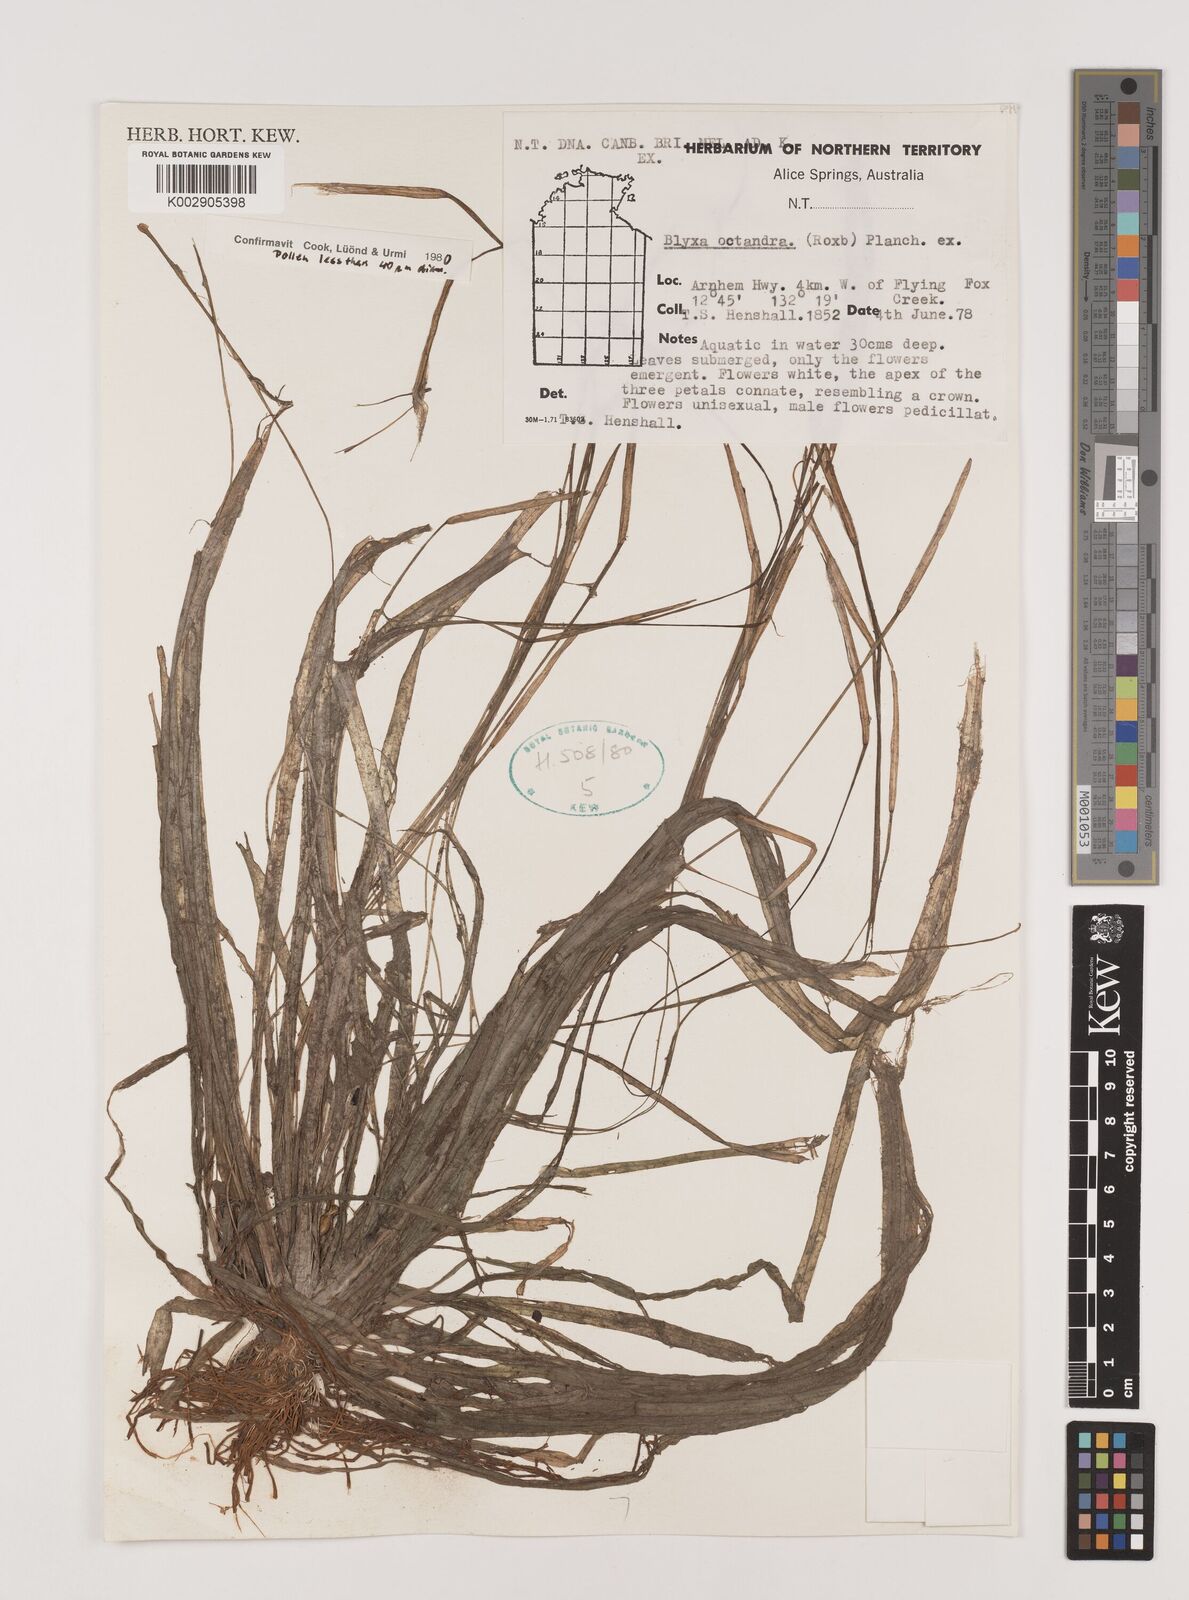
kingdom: Plantae
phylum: Tracheophyta
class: Liliopsida
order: Alismatales
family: Hydrocharitaceae
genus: Blyxa
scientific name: Blyxa octandra
